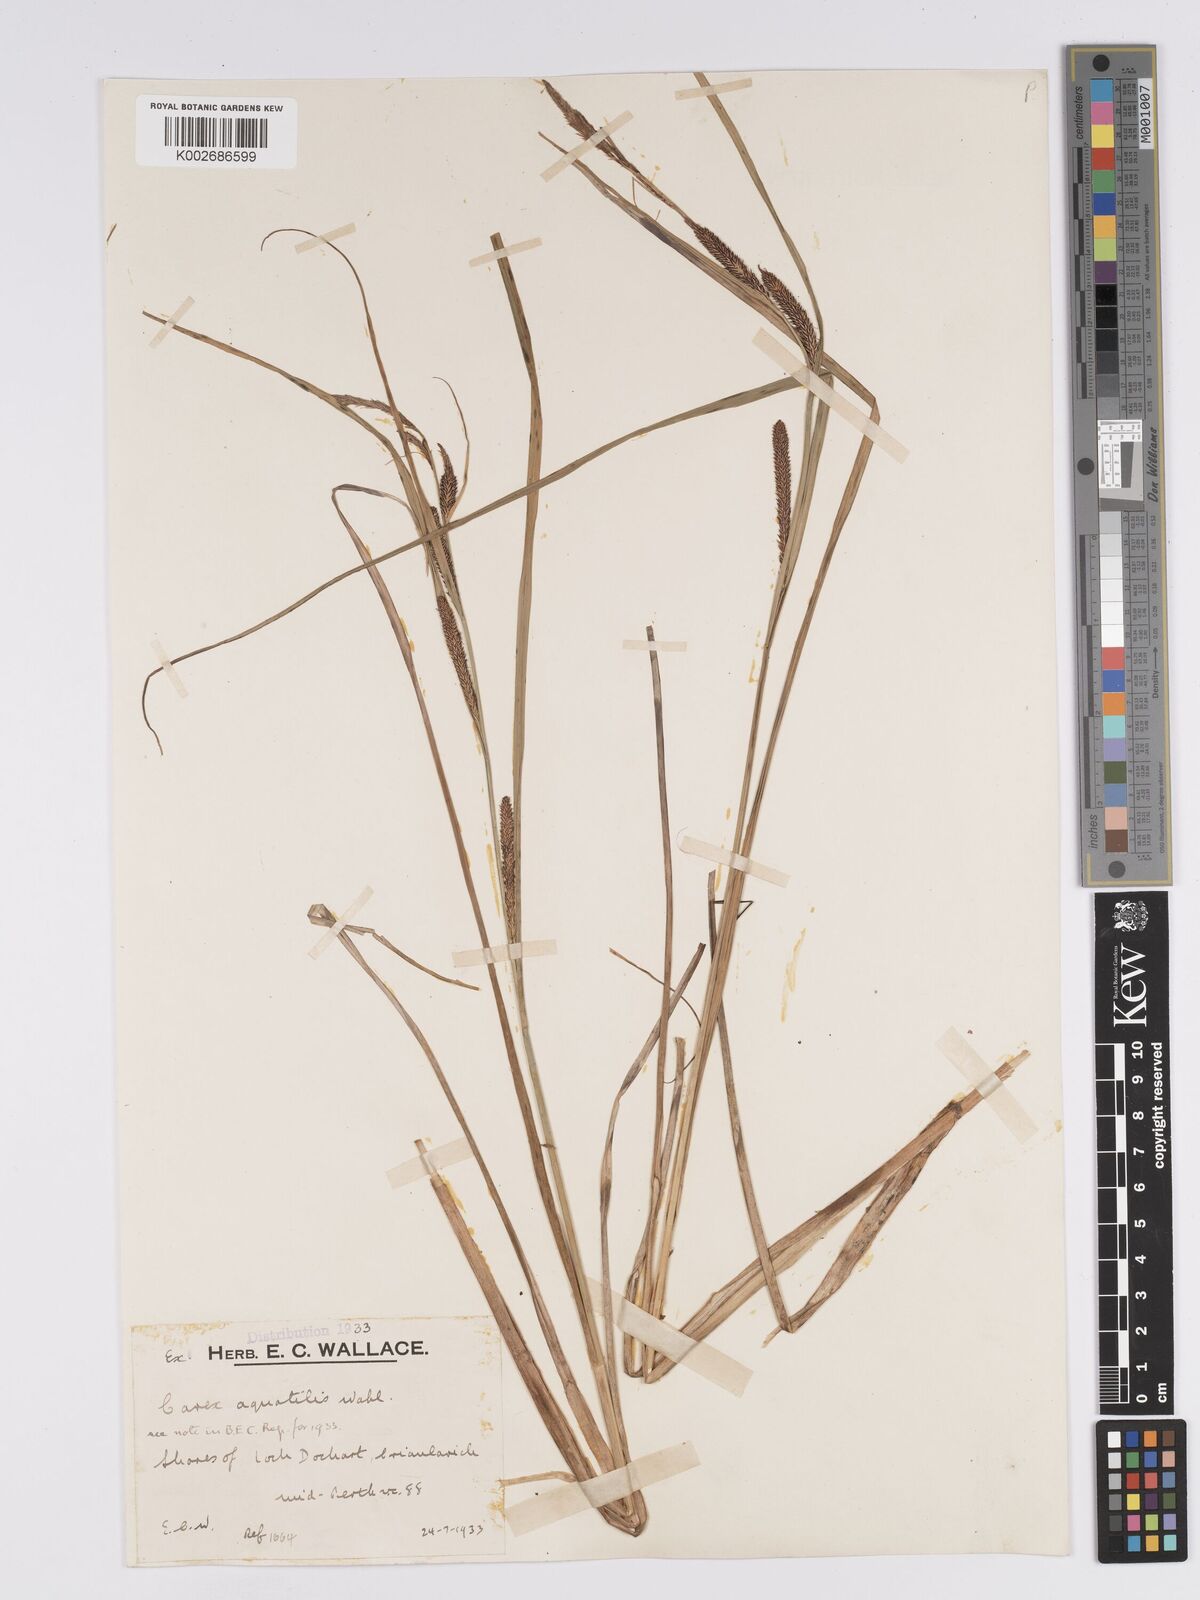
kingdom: Plantae
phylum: Tracheophyta
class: Liliopsida
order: Poales
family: Cyperaceae
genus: Carex
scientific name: Carex aquatilis
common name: Water sedge
